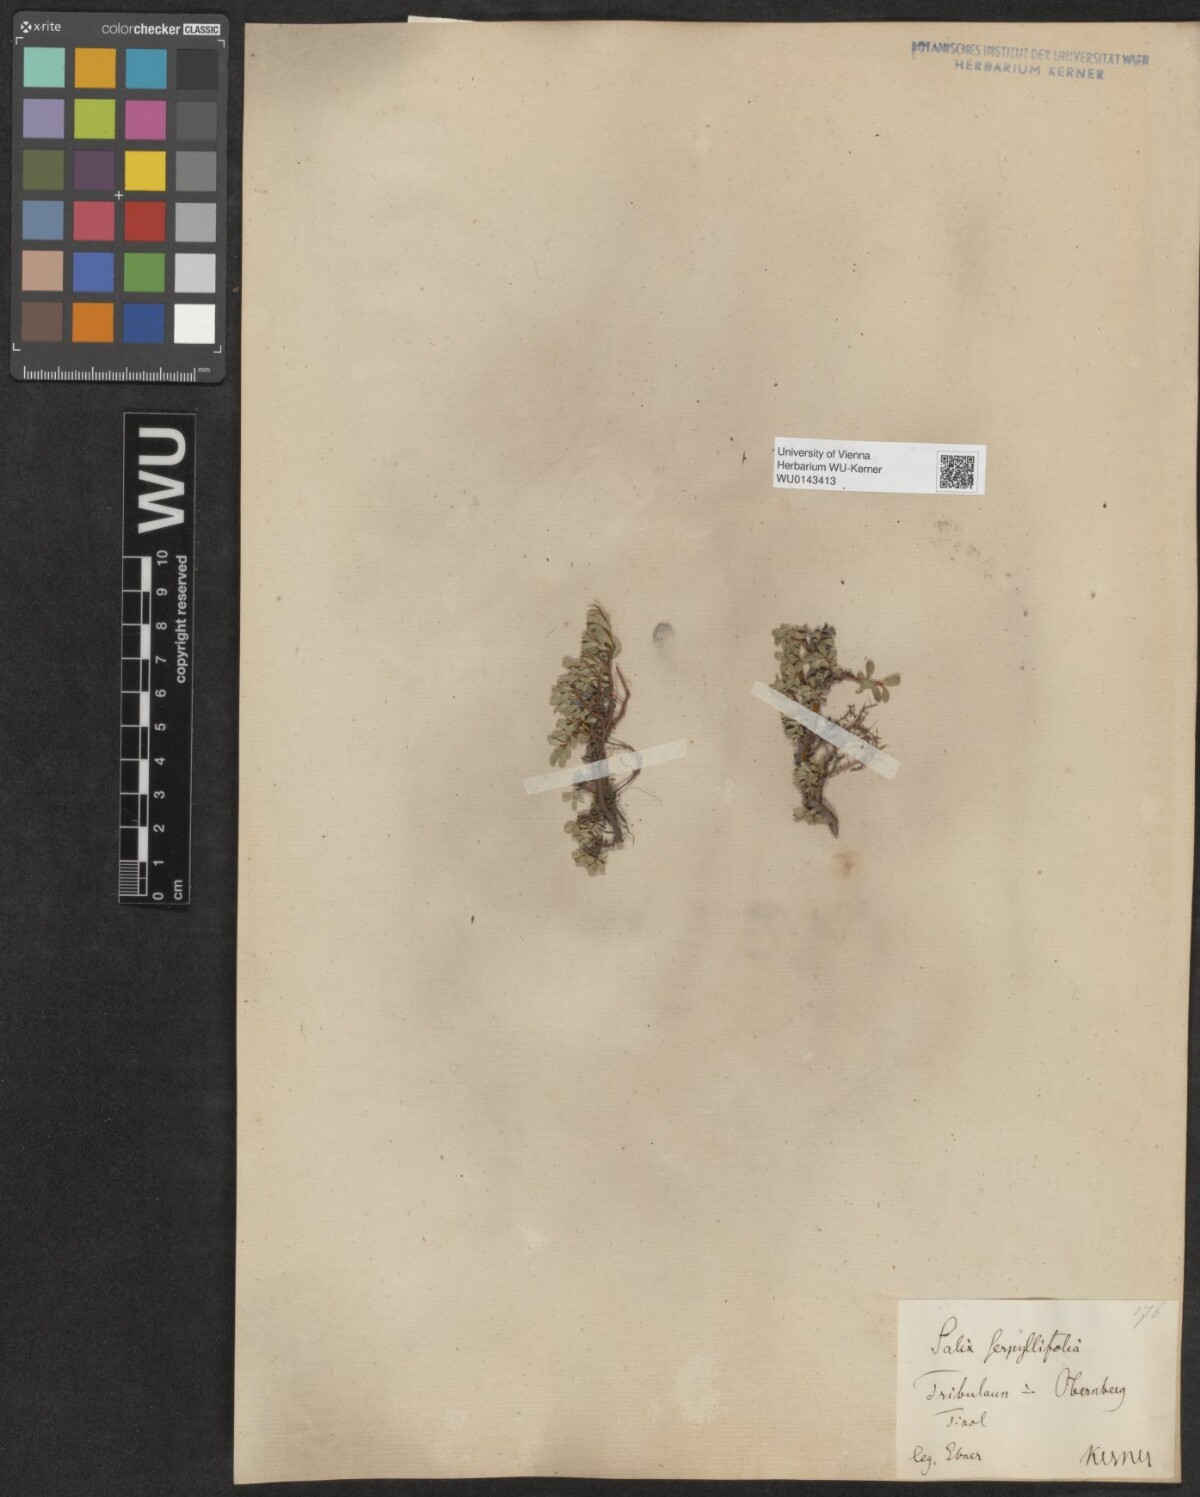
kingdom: Plantae
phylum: Tracheophyta
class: Magnoliopsida
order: Malpighiales
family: Salicaceae
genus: Salix
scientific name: Salix serpillifolia
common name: Thyme-leaf willow
